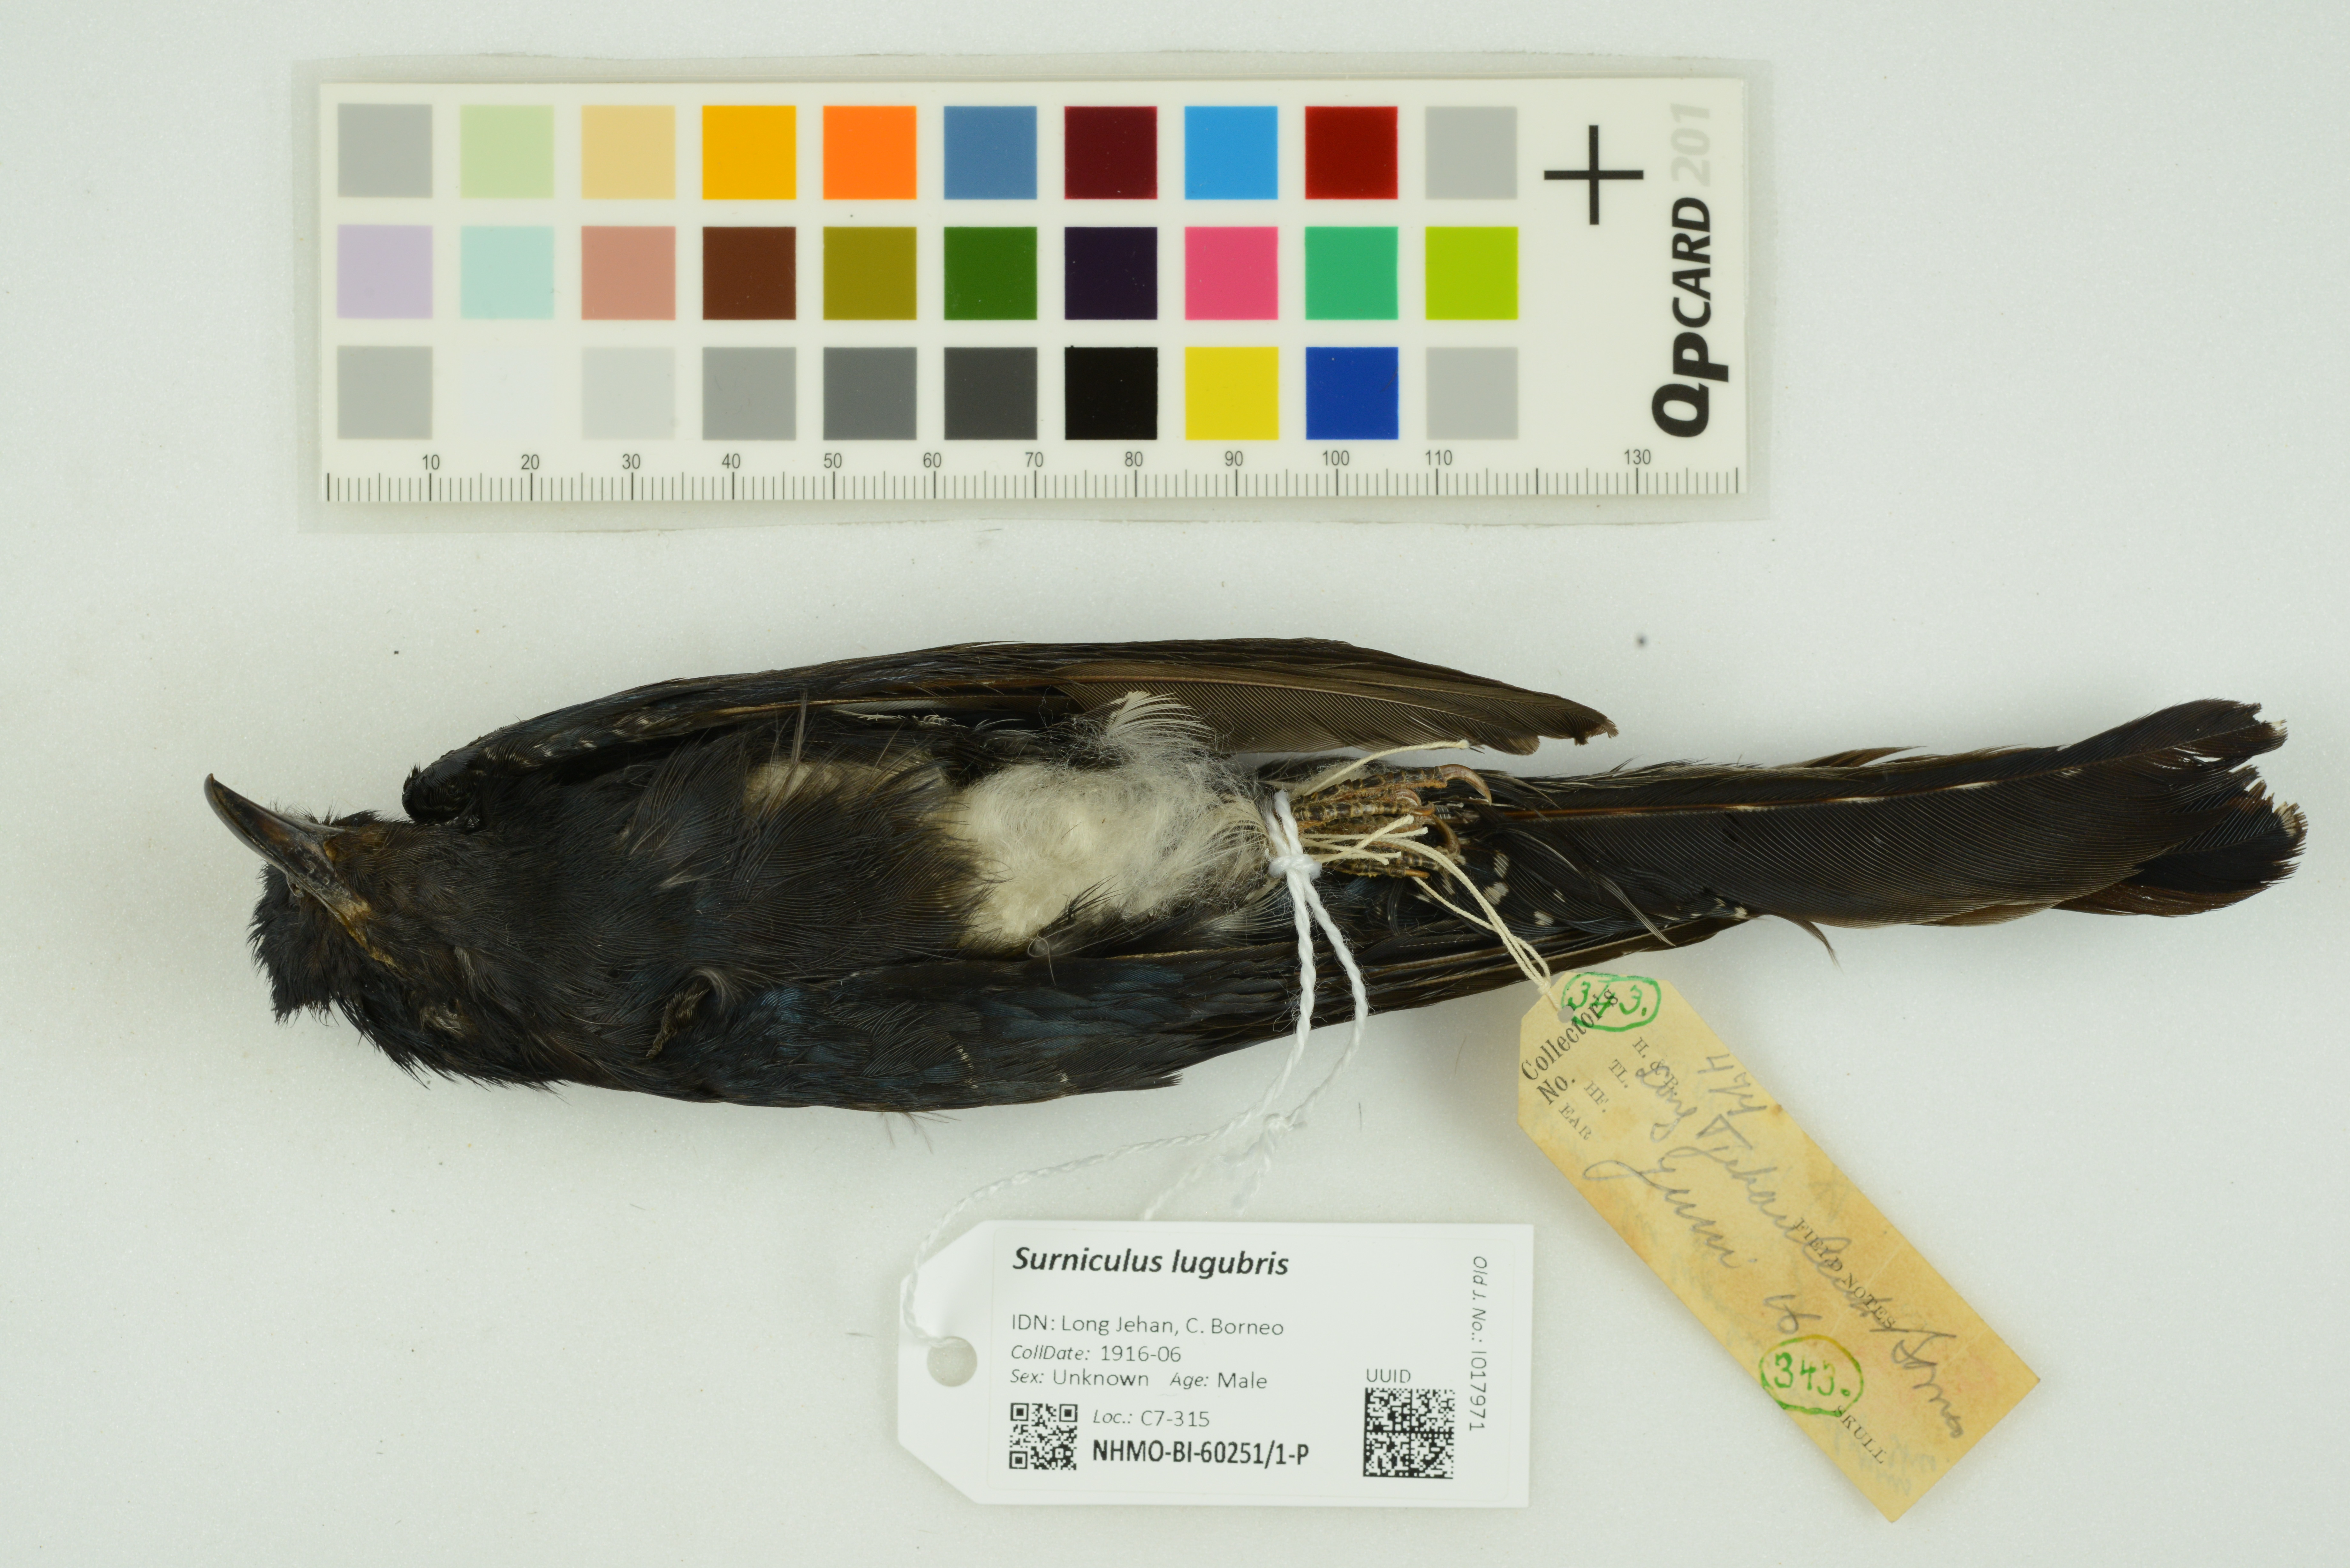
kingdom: Animalia
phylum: Chordata
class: Aves
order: Cuculiformes
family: Cuculidae
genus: Surniculus
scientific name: Surniculus lugubris
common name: Square-tailed drongo-cuckoo
